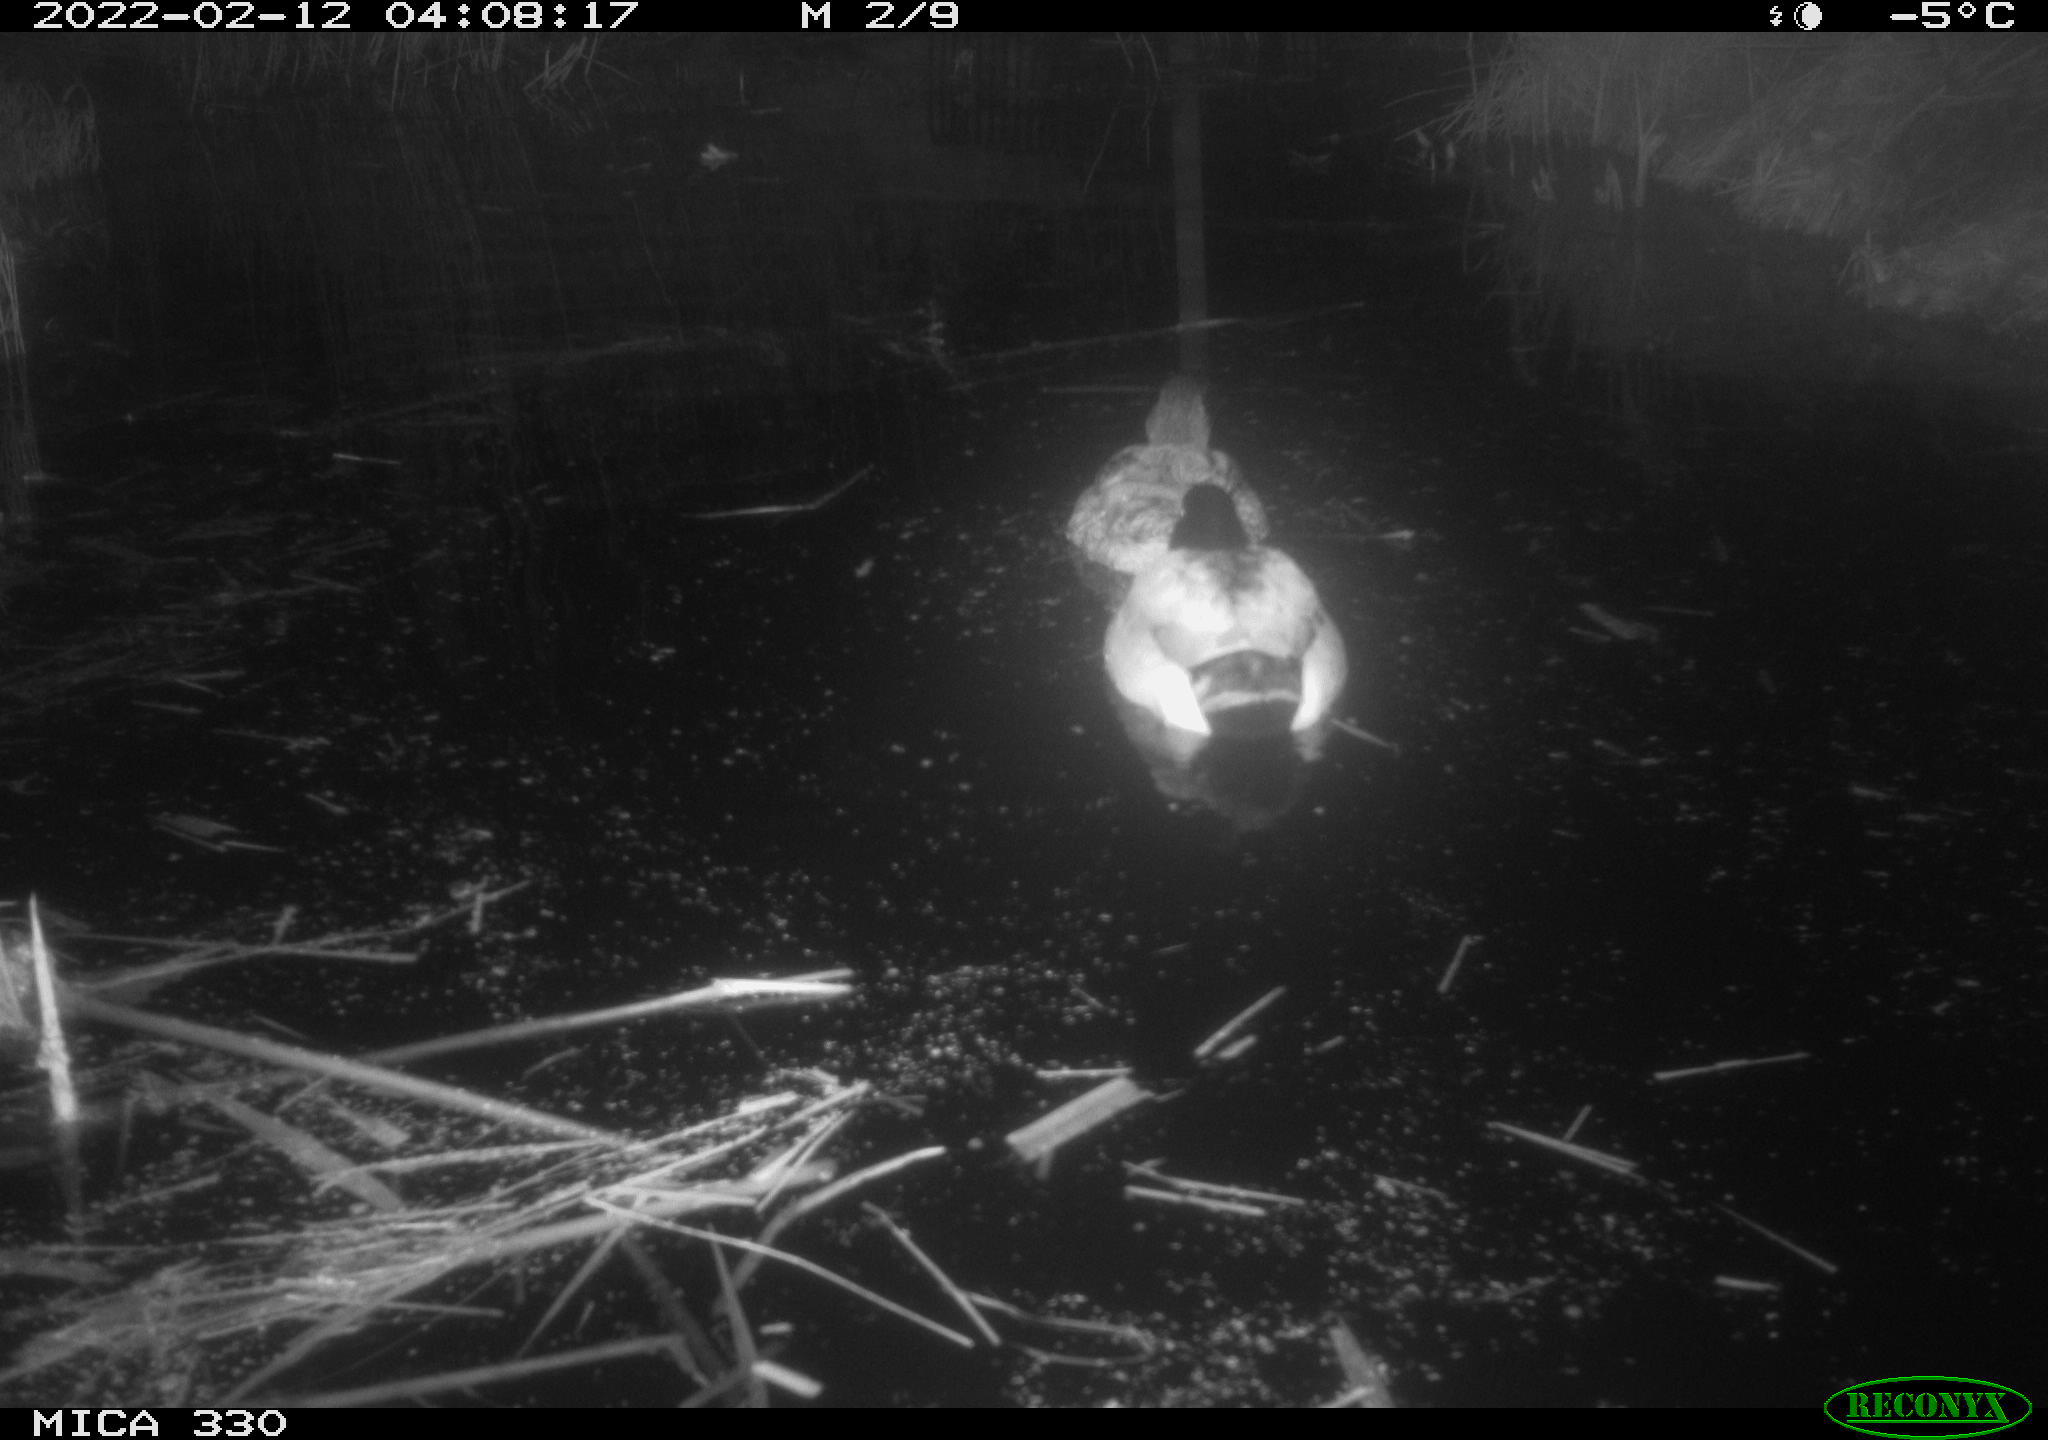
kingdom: Animalia
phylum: Chordata
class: Aves
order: Anseriformes
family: Anatidae
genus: Anas
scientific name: Anas platyrhynchos
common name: Mallard
